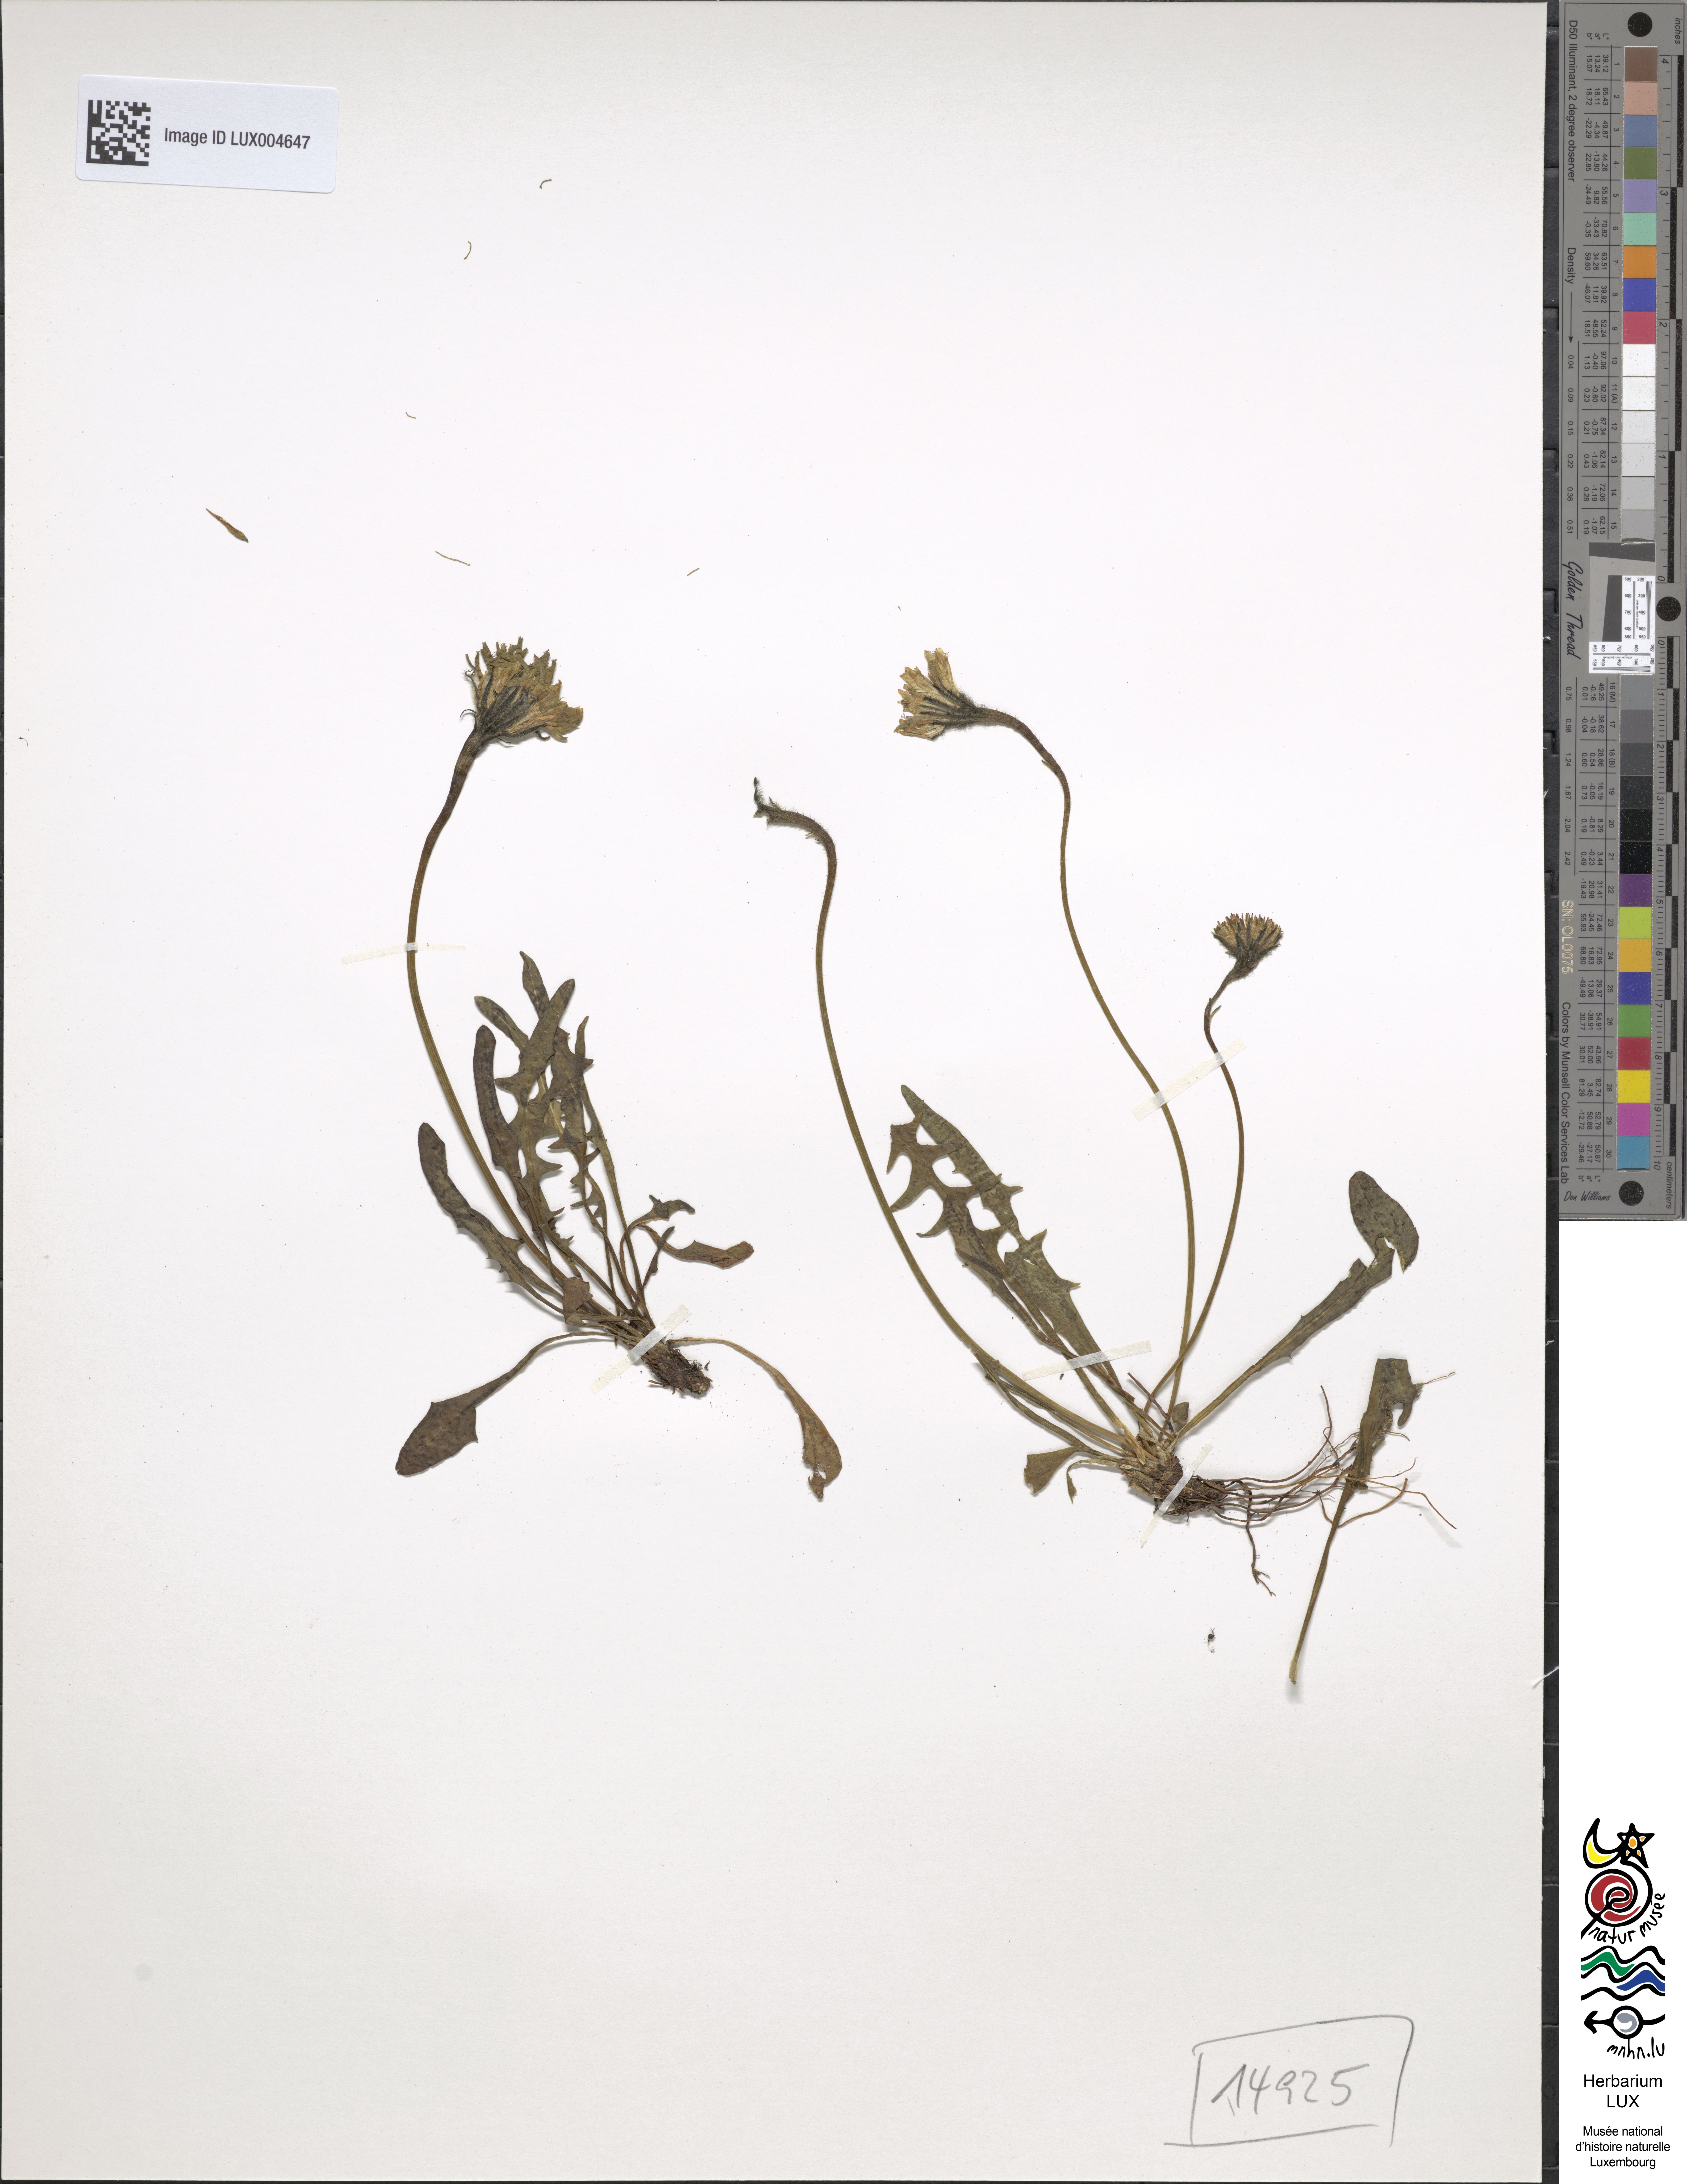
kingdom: Plantae
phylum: Tracheophyta
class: Magnoliopsida
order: Asterales
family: Asteraceae
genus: Scorzoneroides
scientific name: Scorzoneroides montana
